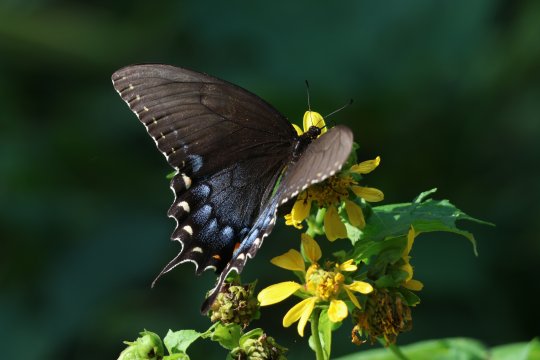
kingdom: Animalia
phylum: Arthropoda
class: Insecta
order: Lepidoptera
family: Papilionidae
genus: Pterourus
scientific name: Pterourus troilus
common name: Spicebush Swallowtail
